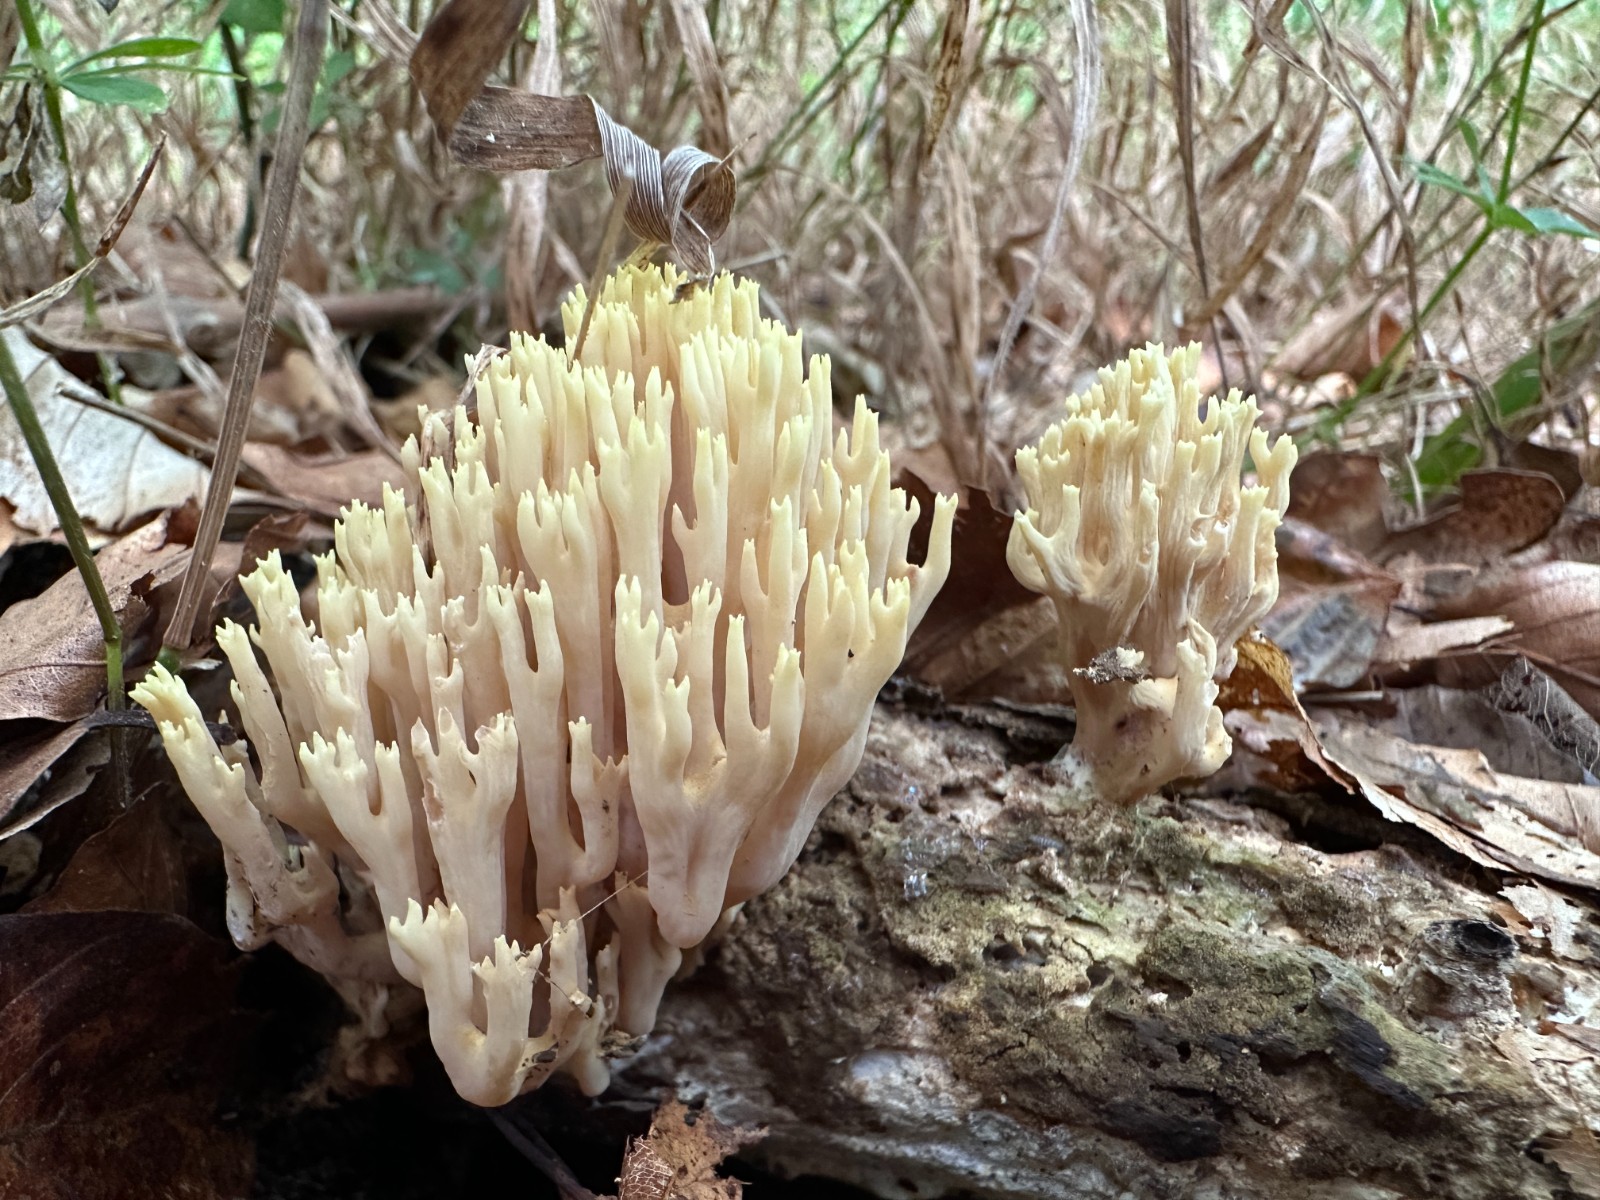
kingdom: Fungi
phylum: Basidiomycota
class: Agaricomycetes
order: Gomphales
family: Gomphaceae
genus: Ramaria
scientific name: Ramaria stricta
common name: rank koralsvamp
